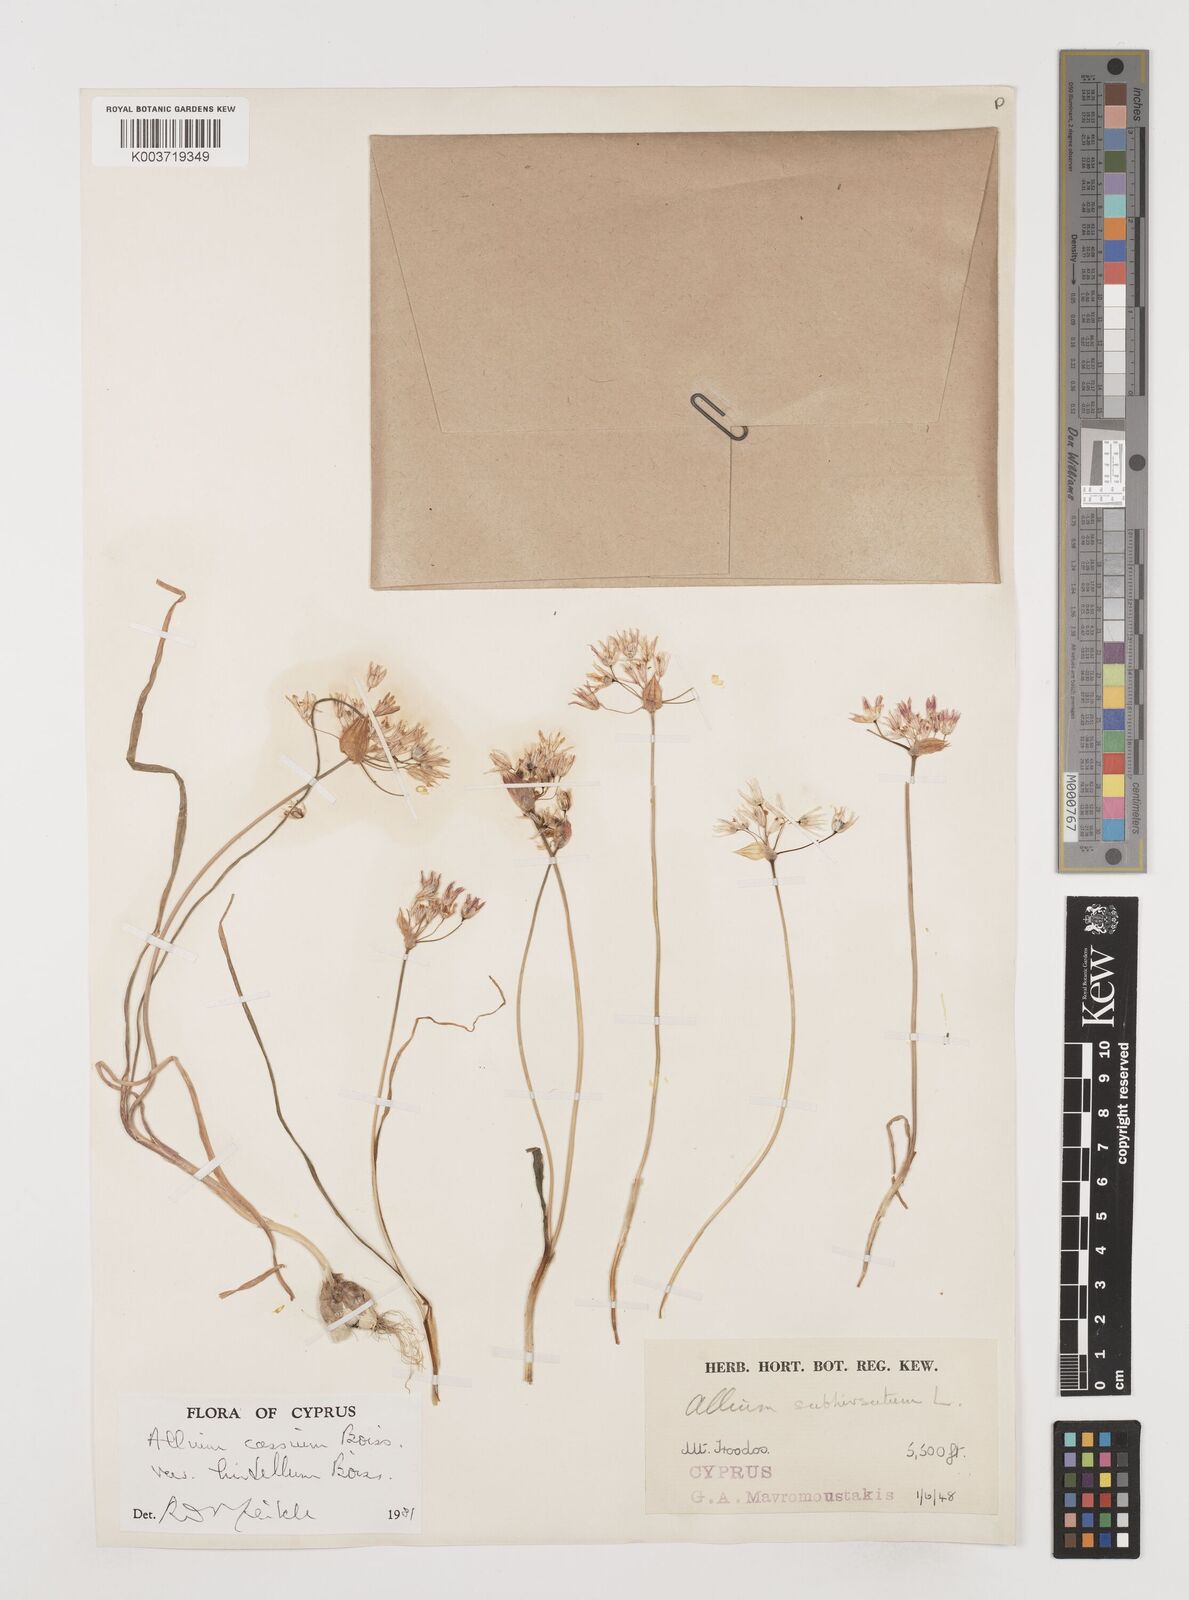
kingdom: Plantae
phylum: Tracheophyta
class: Liliopsida
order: Asparagales
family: Amaryllidaceae
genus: Allium
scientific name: Allium cassium
